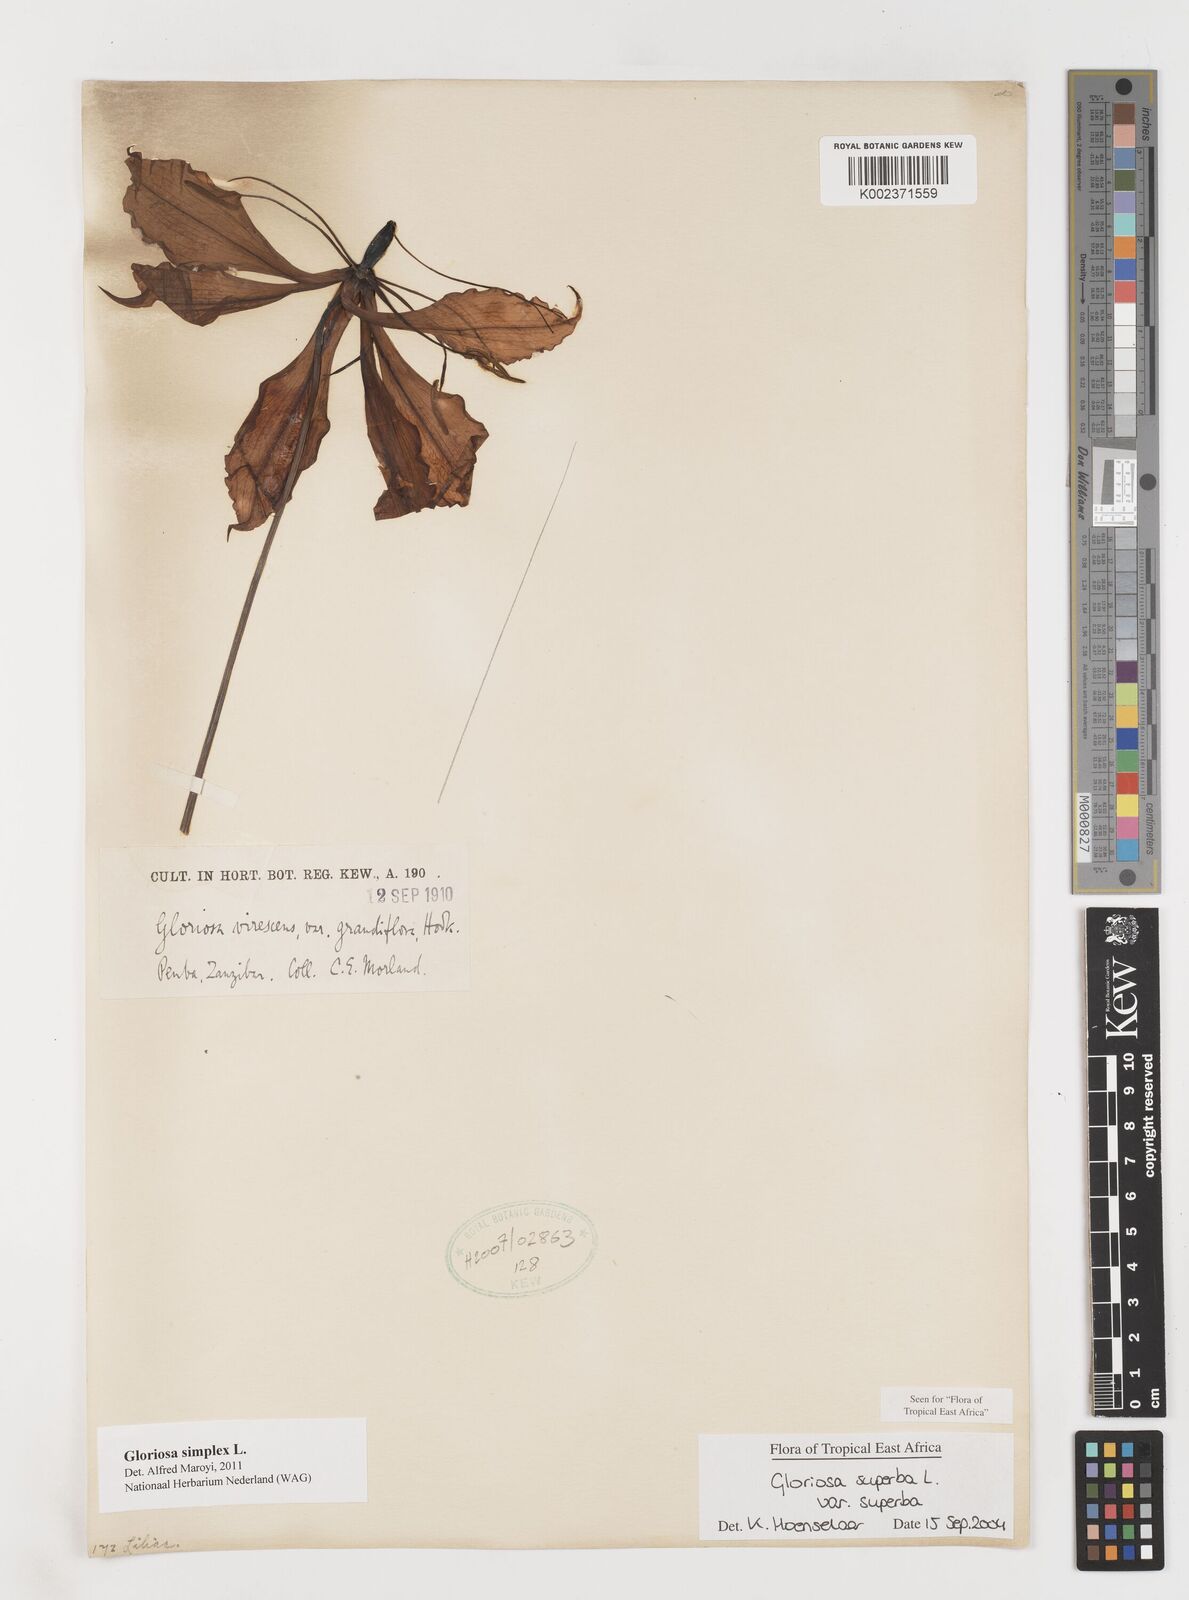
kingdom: Plantae
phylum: Tracheophyta
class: Liliopsida
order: Liliales
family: Colchicaceae
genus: Gloriosa
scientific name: Gloriosa simplex
